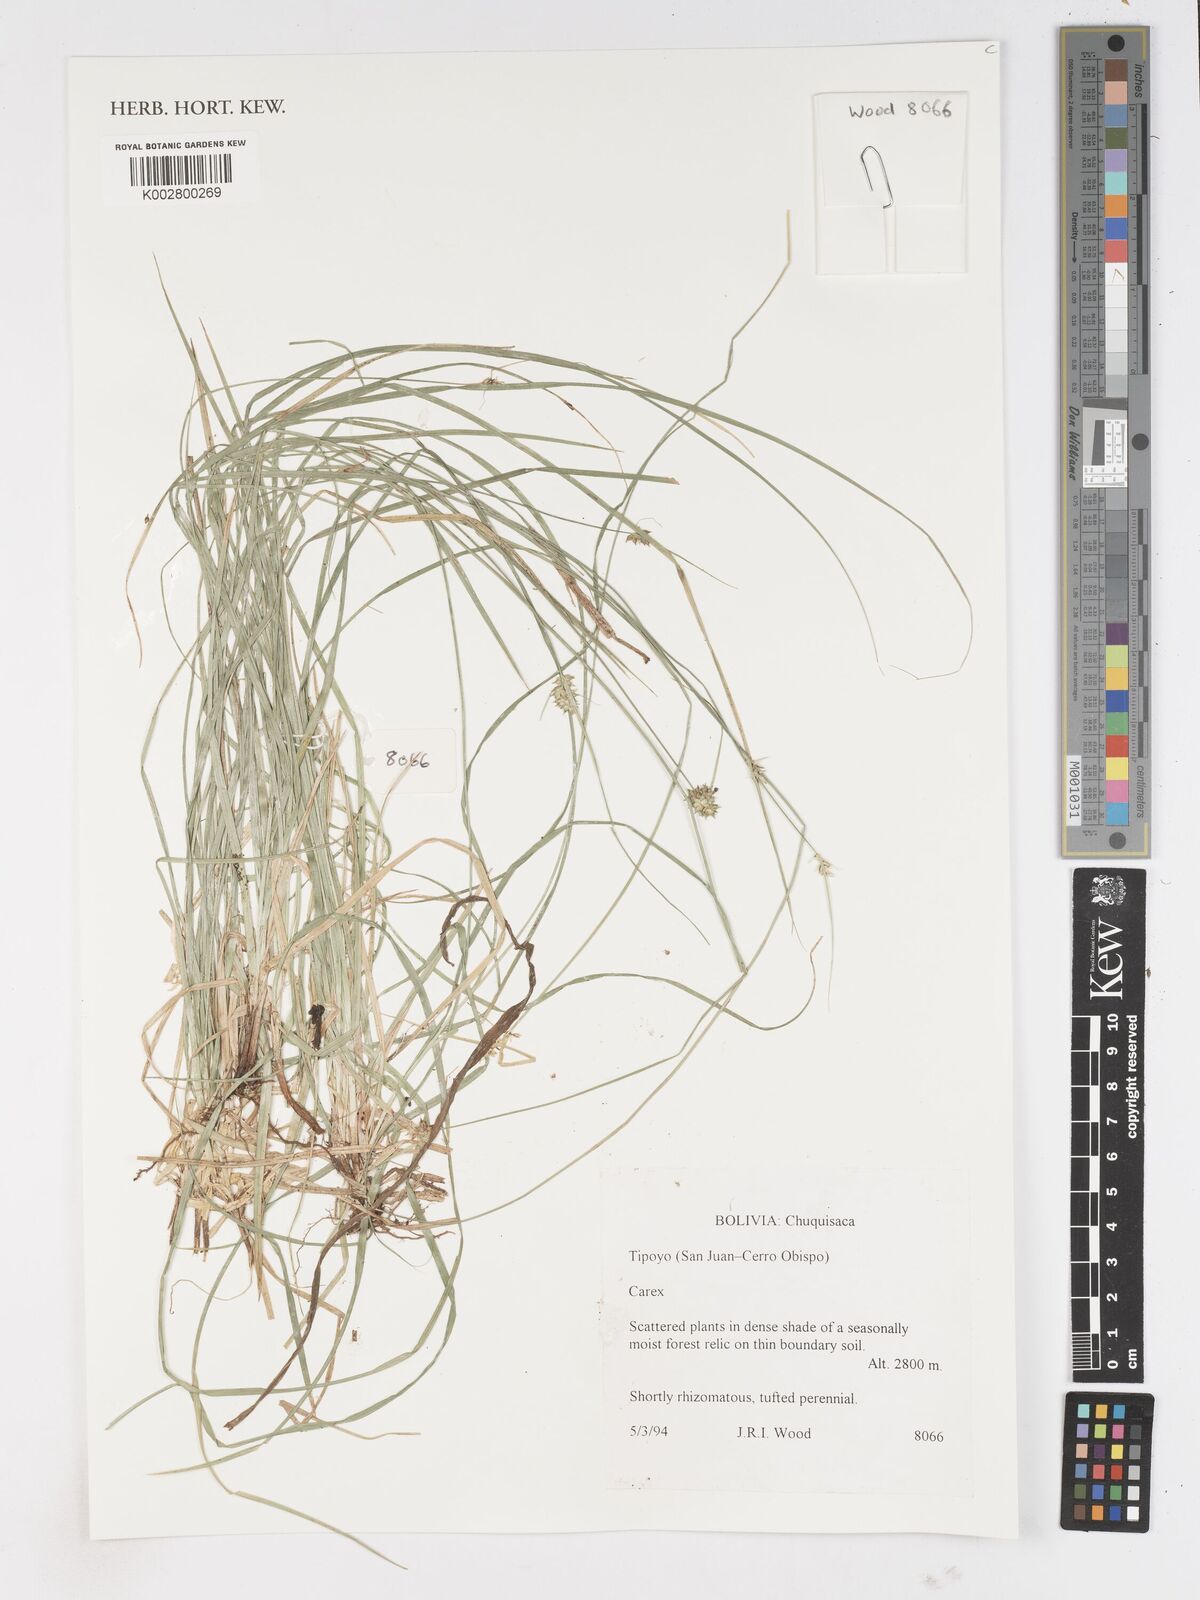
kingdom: Plantae
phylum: Tracheophyta
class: Liliopsida
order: Poales
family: Cyperaceae
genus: Carex
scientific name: Carex
